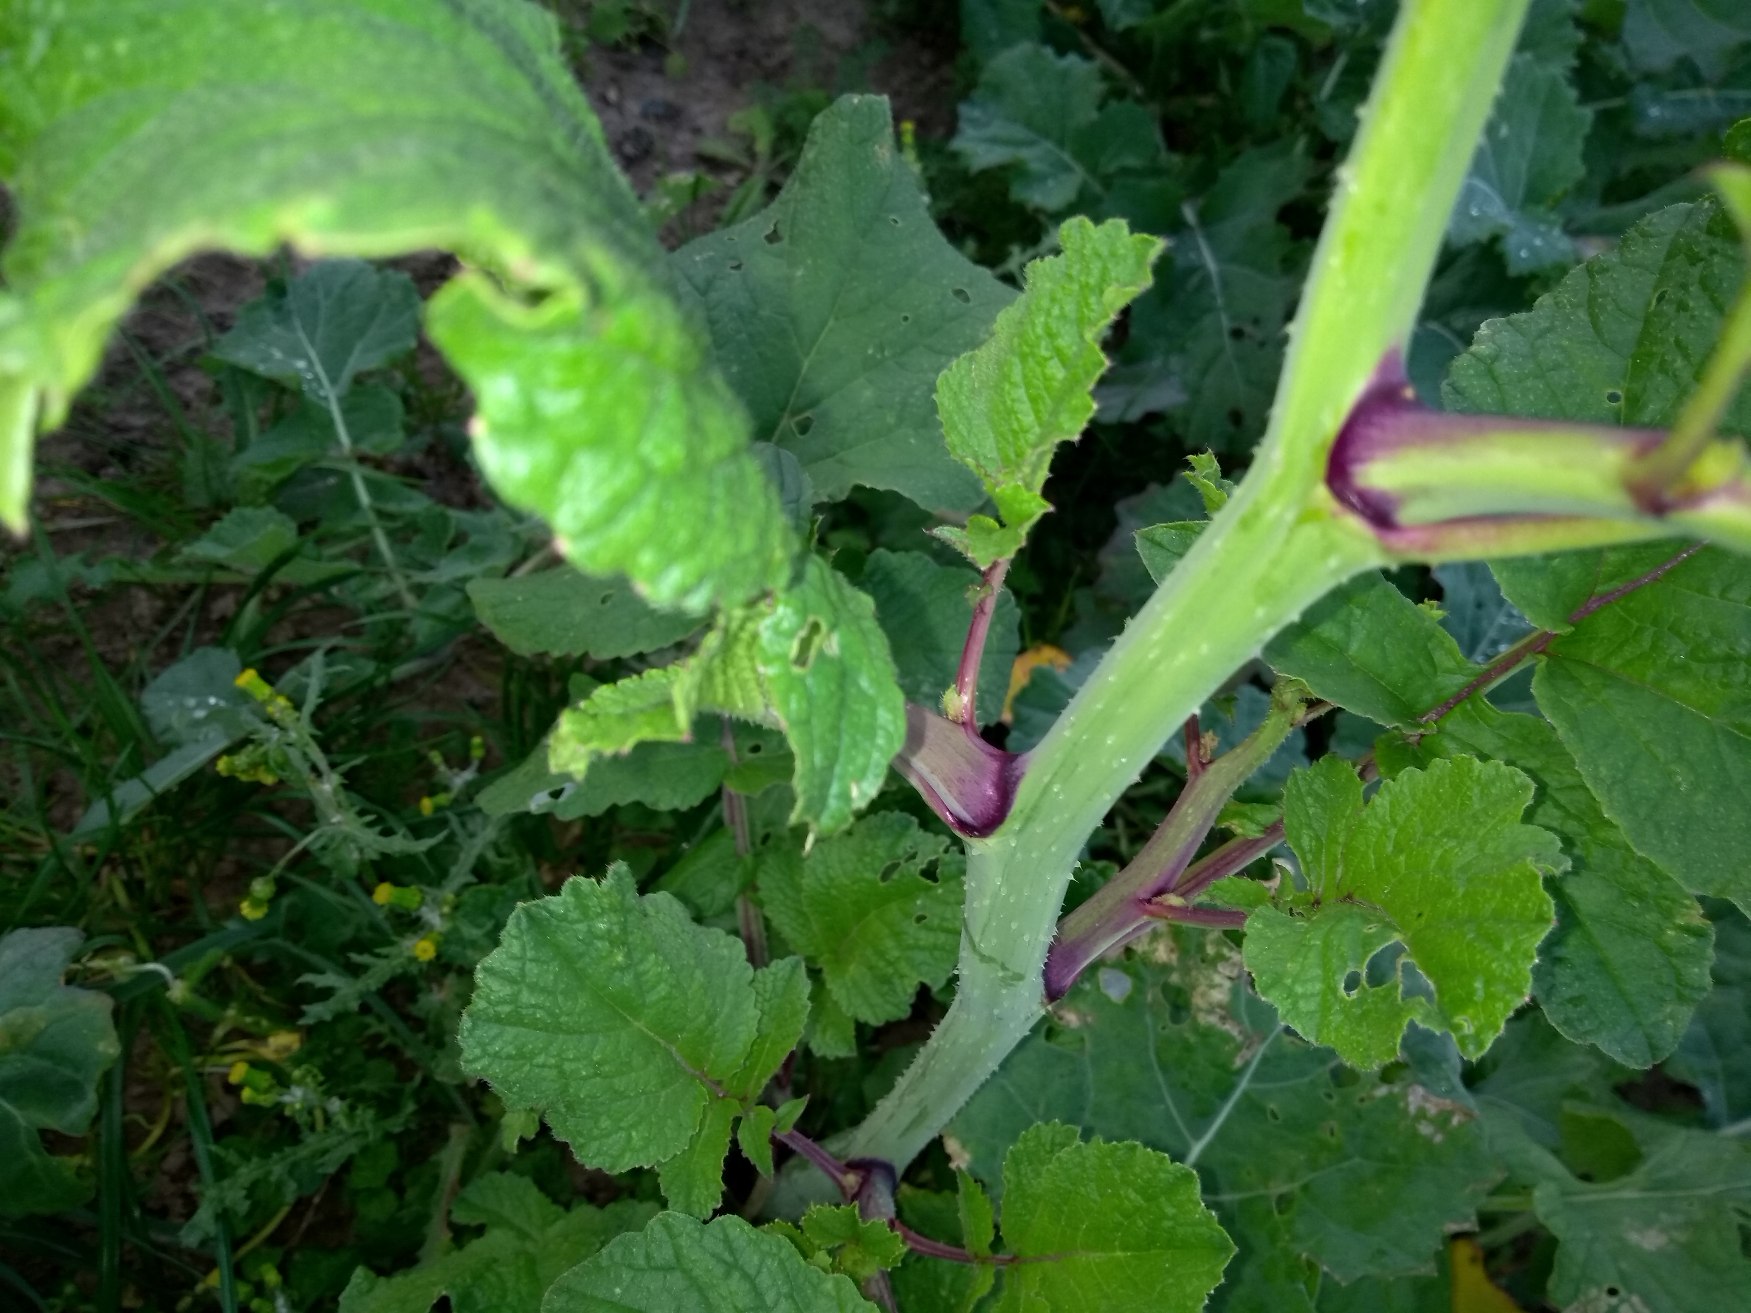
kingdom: Plantae
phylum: Tracheophyta
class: Magnoliopsida
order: Brassicales
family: Brassicaceae
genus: Raphanus
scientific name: Raphanus sativus
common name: Olie-ræddike
